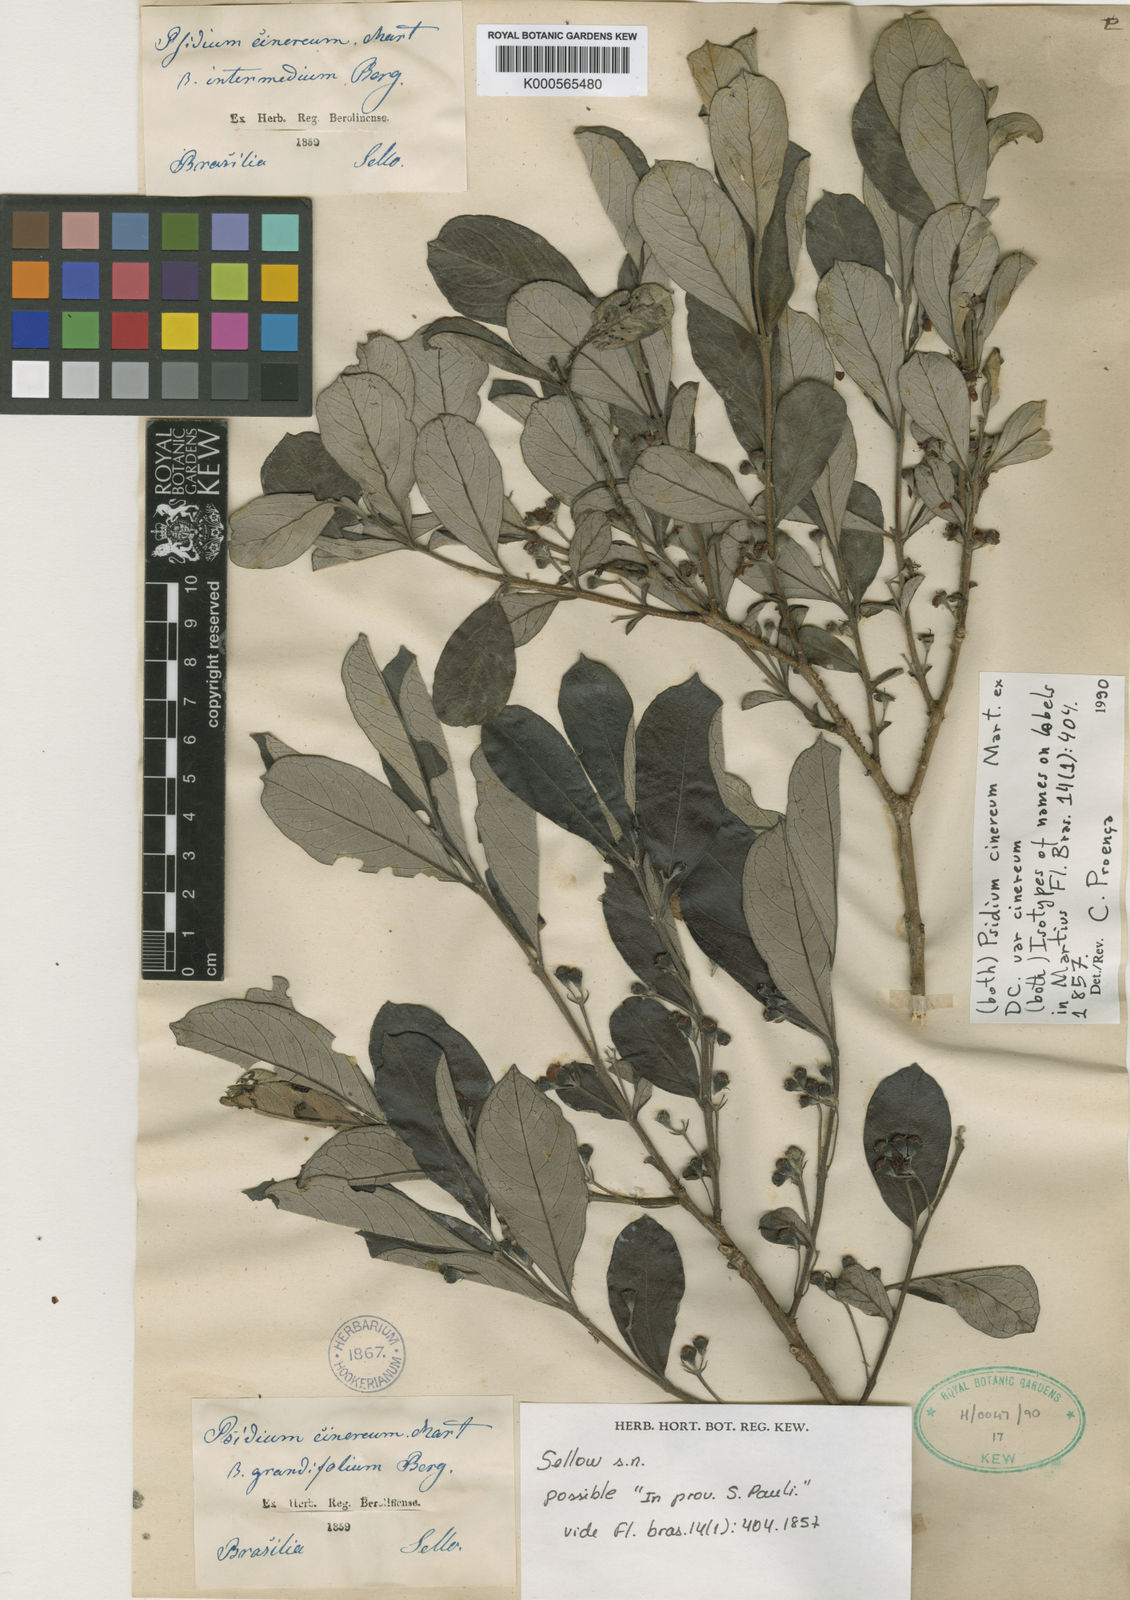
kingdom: Plantae
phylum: Tracheophyta
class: Magnoliopsida
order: Myrtales
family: Myrtaceae
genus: Psidium
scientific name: Psidium grandifolium
